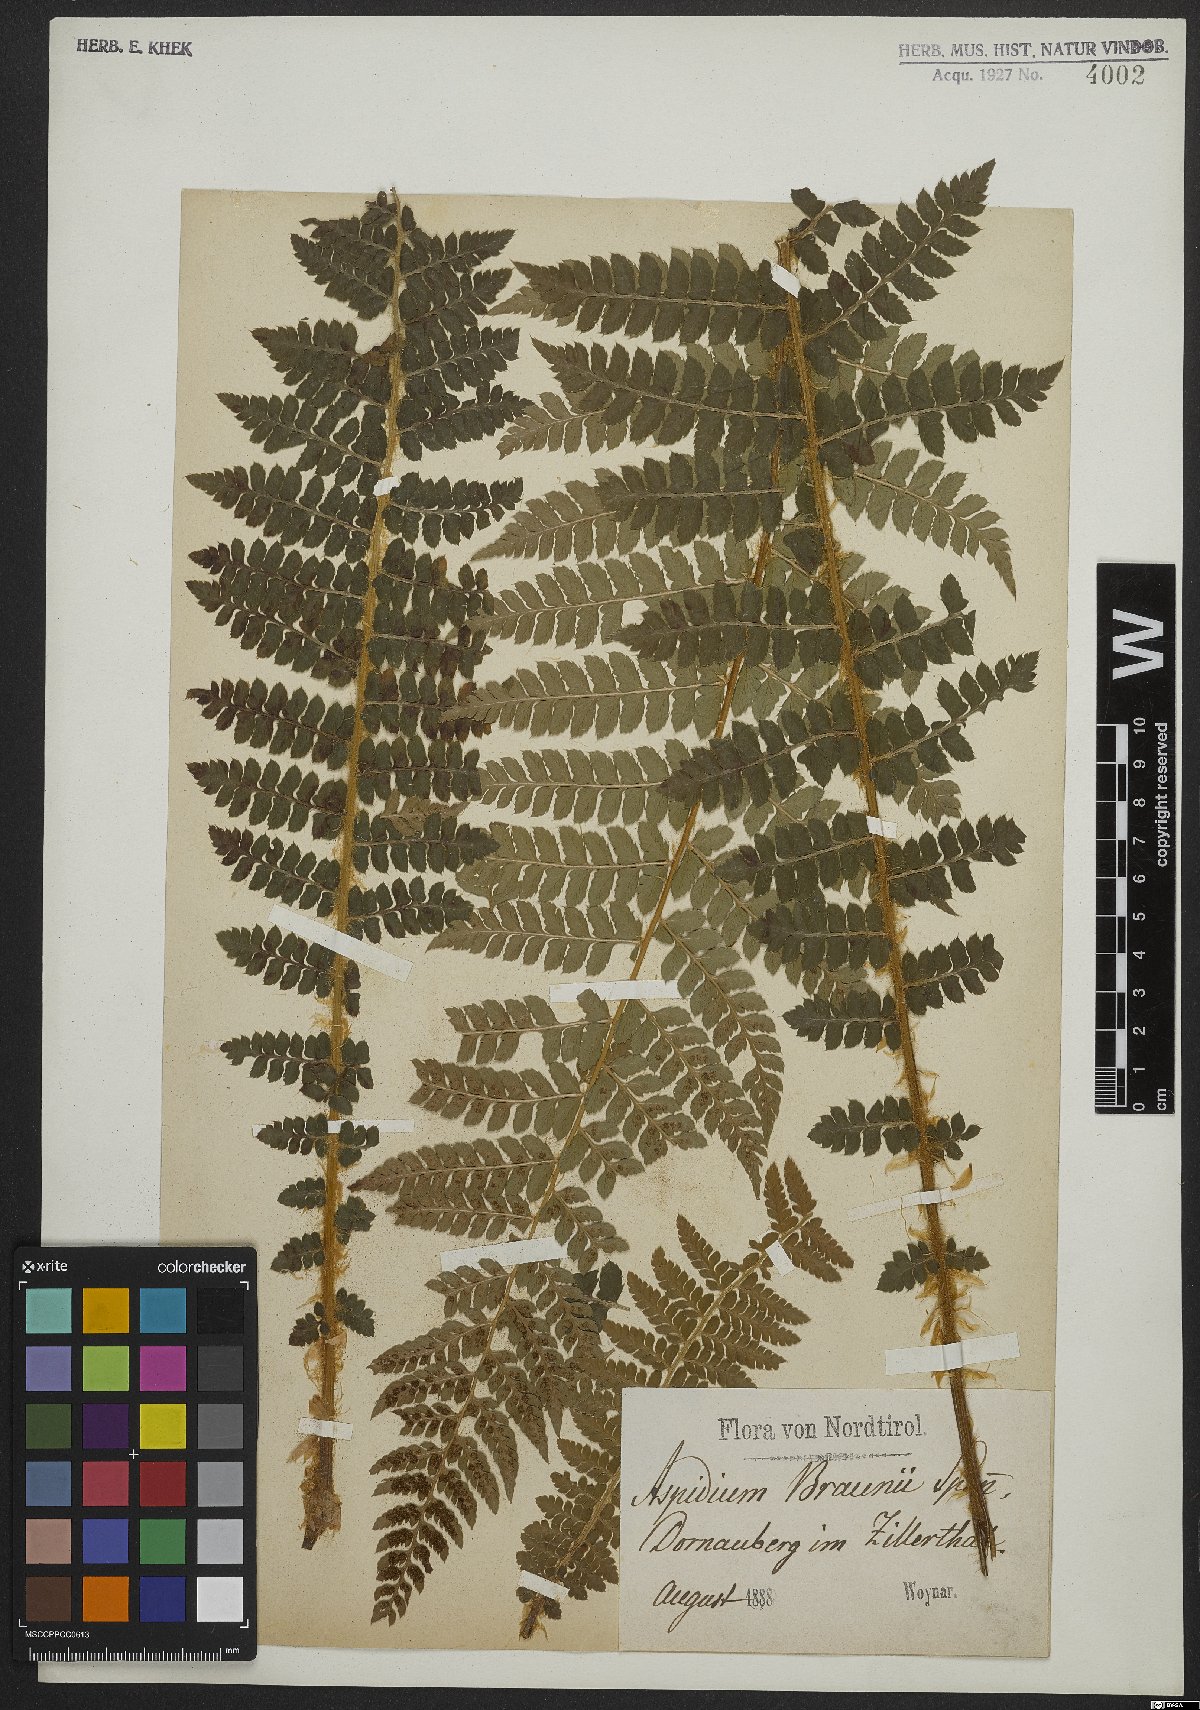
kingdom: Plantae
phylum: Tracheophyta
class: Polypodiopsida
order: Polypodiales
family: Dryopteridaceae
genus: Polystichum
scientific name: Polystichum braunii
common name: Braun's holly fern
